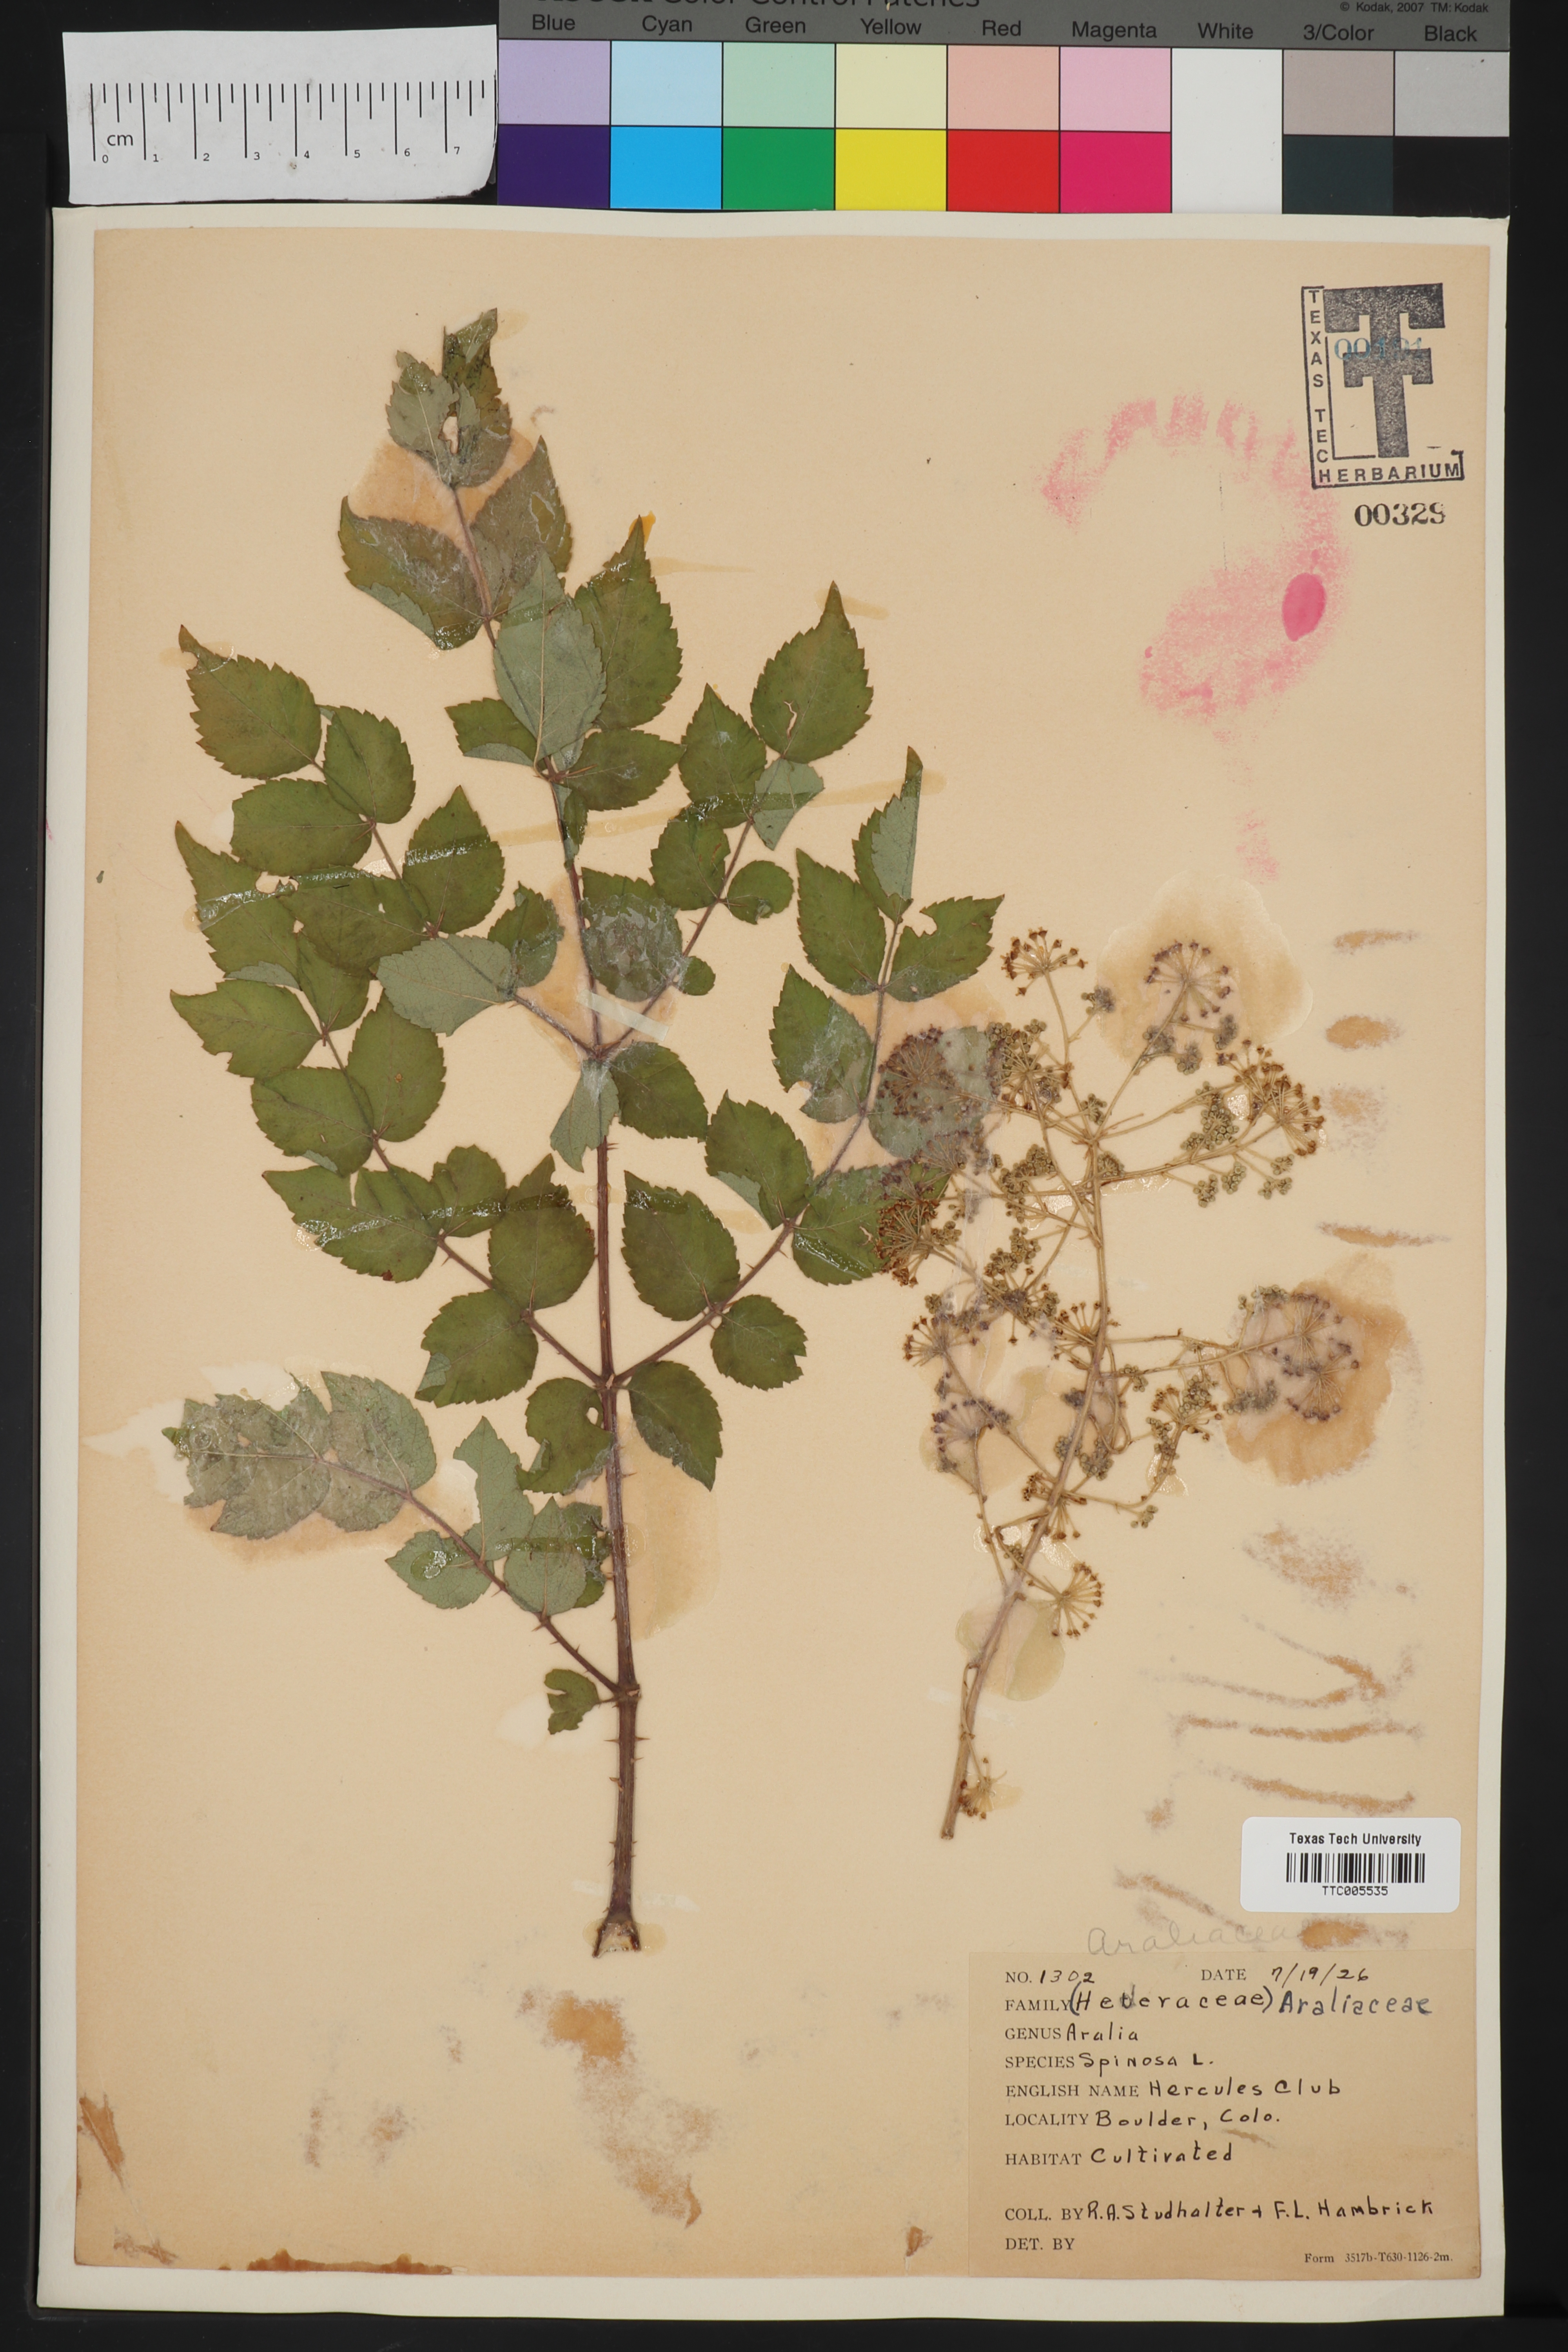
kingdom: Plantae
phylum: Tracheophyta
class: Magnoliopsida
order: Apiales
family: Araliaceae
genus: Aralia
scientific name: Aralia spinosa
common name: Hercules'-club
